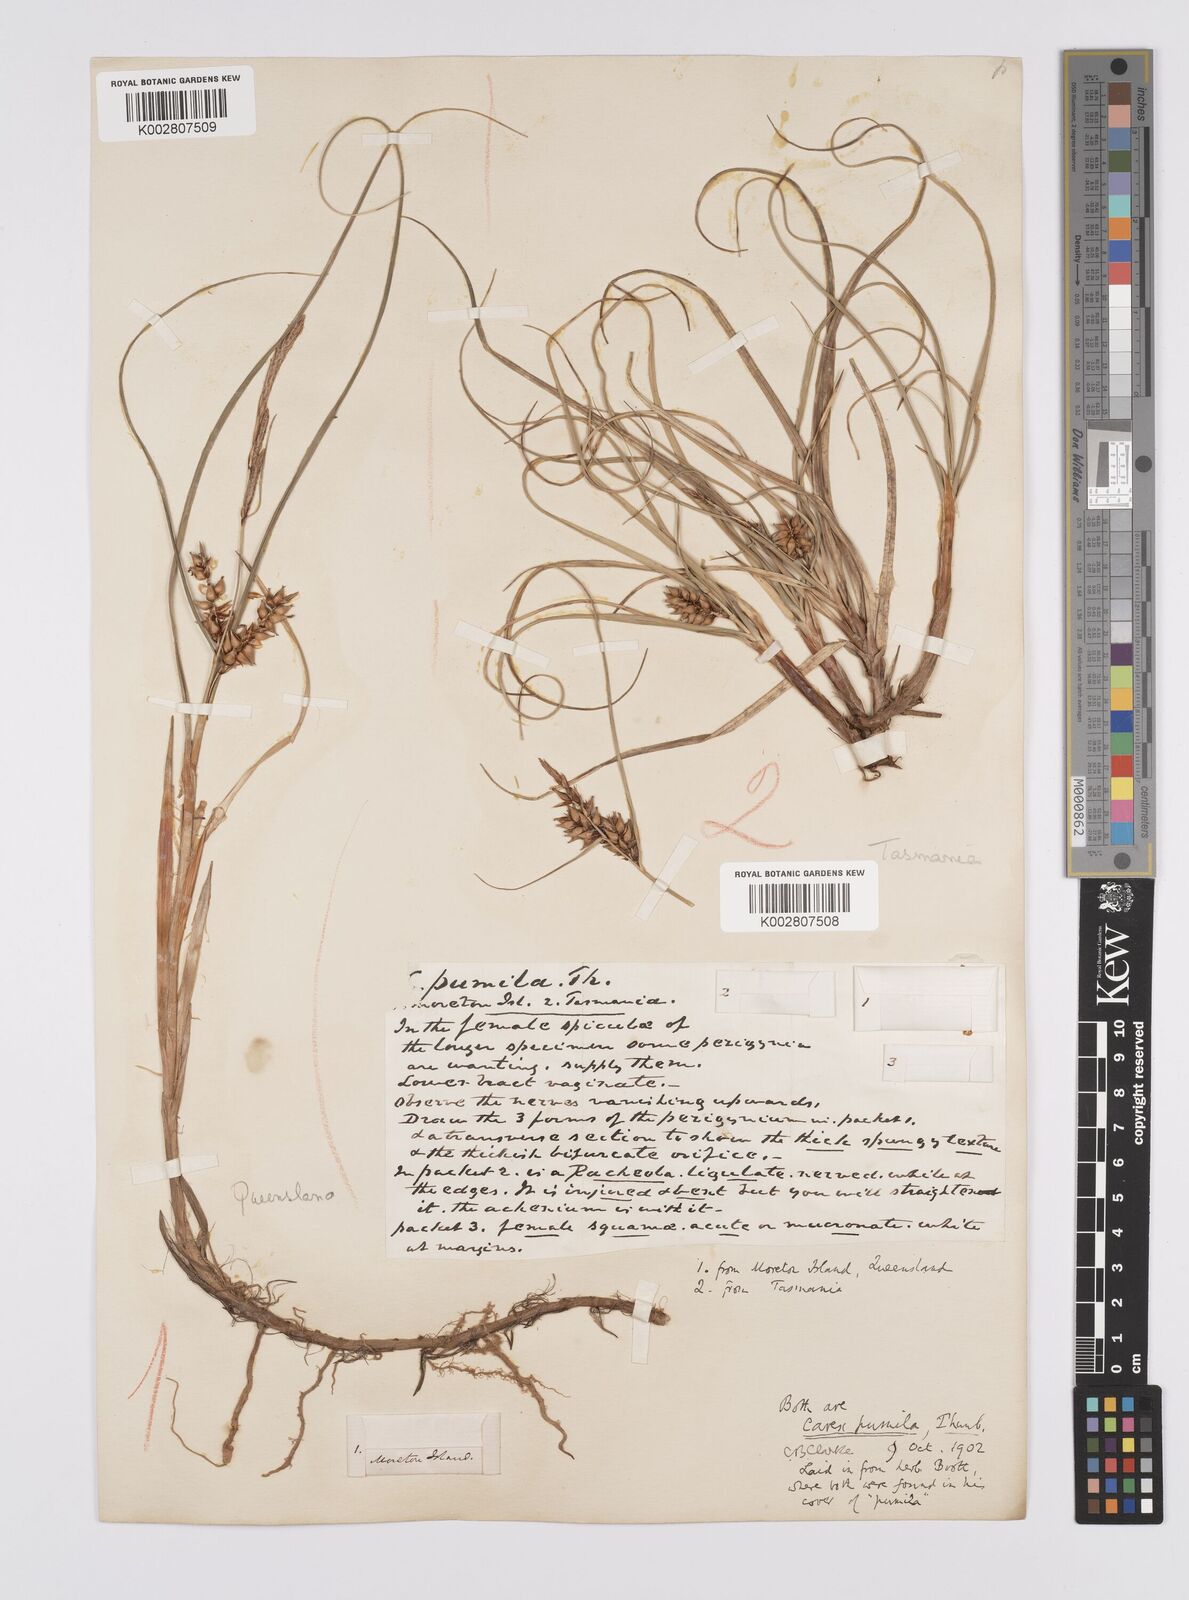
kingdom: Plantae
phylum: Tracheophyta
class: Liliopsida
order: Poales
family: Cyperaceae
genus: Carex
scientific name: Carex pumila
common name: Dwarf sedge
